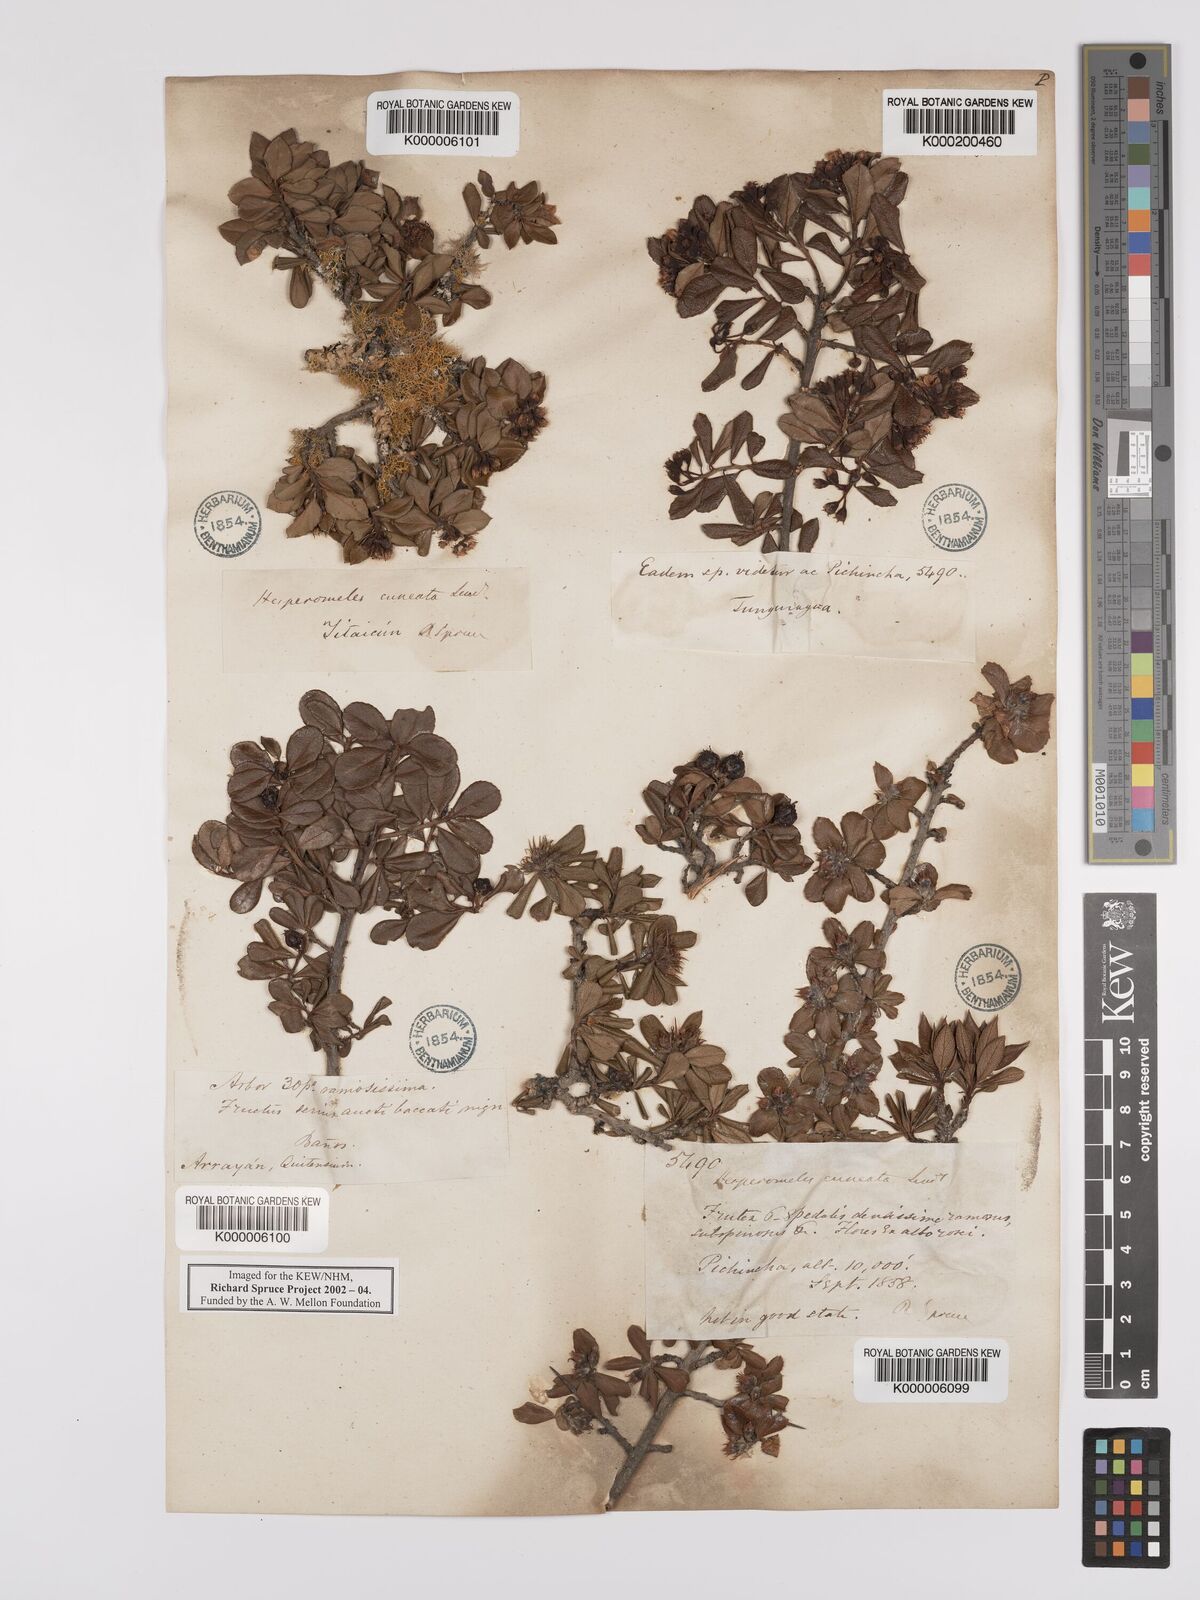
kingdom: Plantae
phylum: Tracheophyta
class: Magnoliopsida
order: Rosales
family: Rosaceae
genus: Hesperomeles
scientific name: Hesperomeles cuneata
